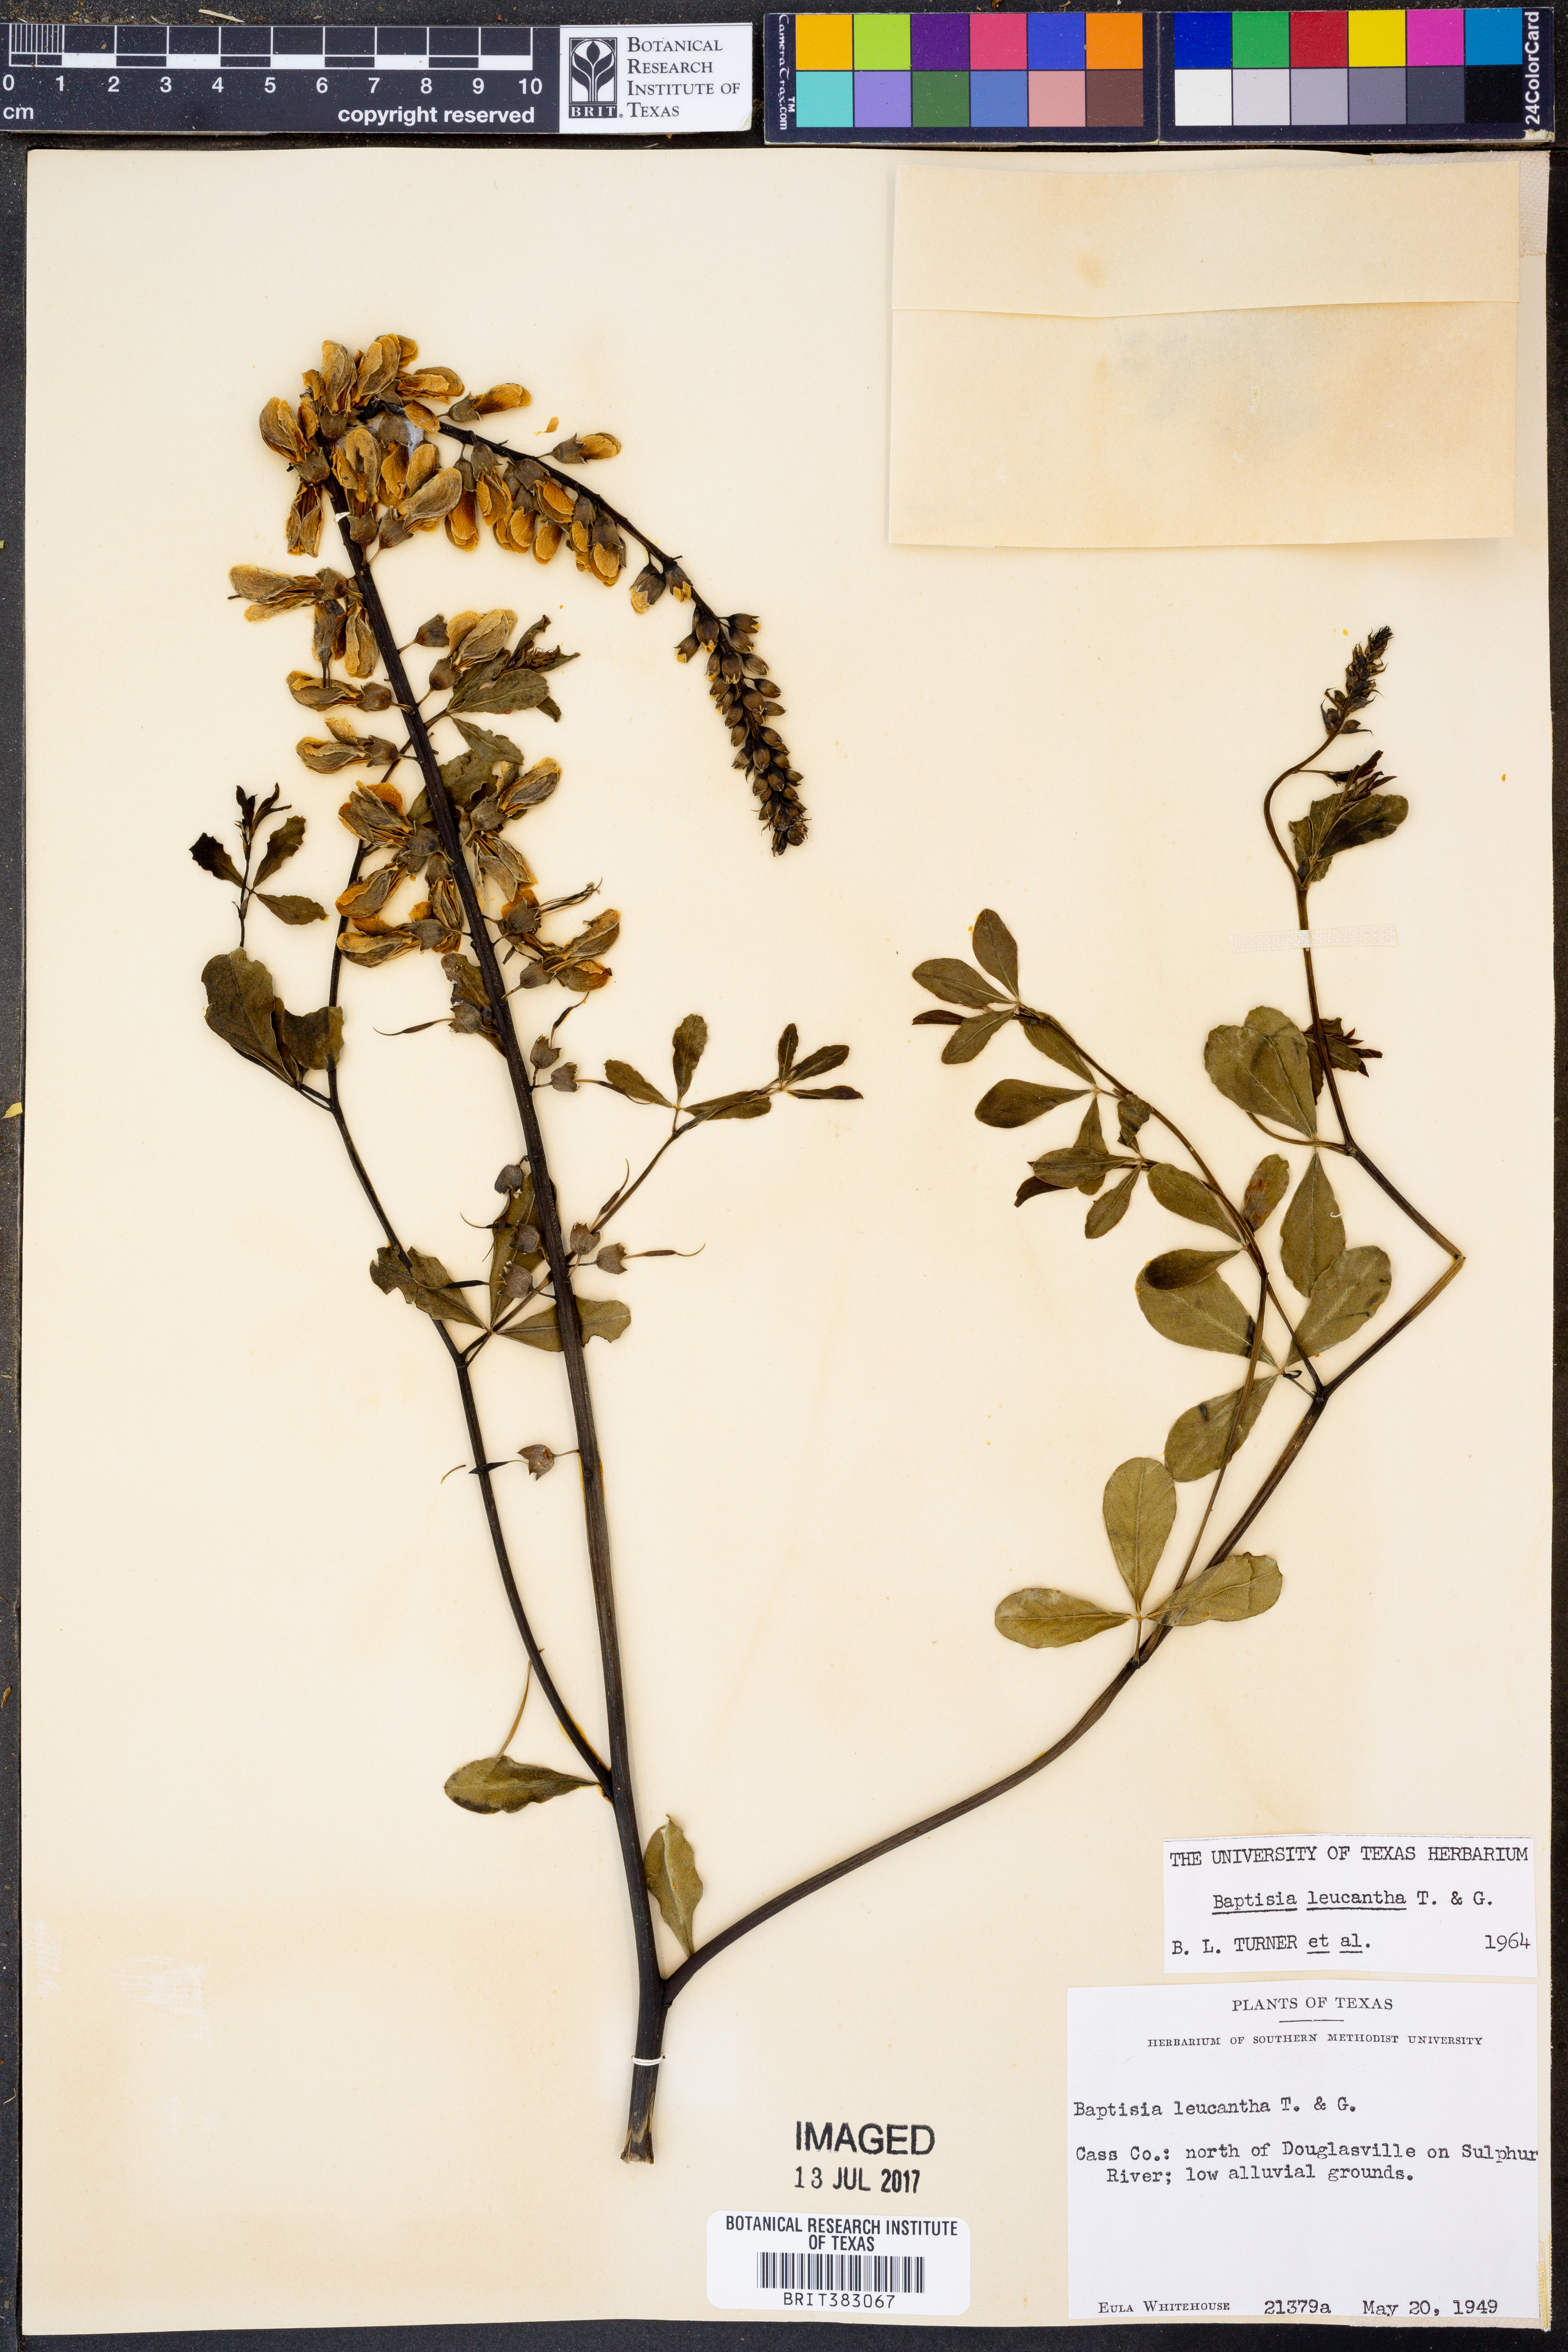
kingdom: Plantae
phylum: Tracheophyta
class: Magnoliopsida
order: Fabales
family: Fabaceae
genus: Baptisia
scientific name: Baptisia alba
